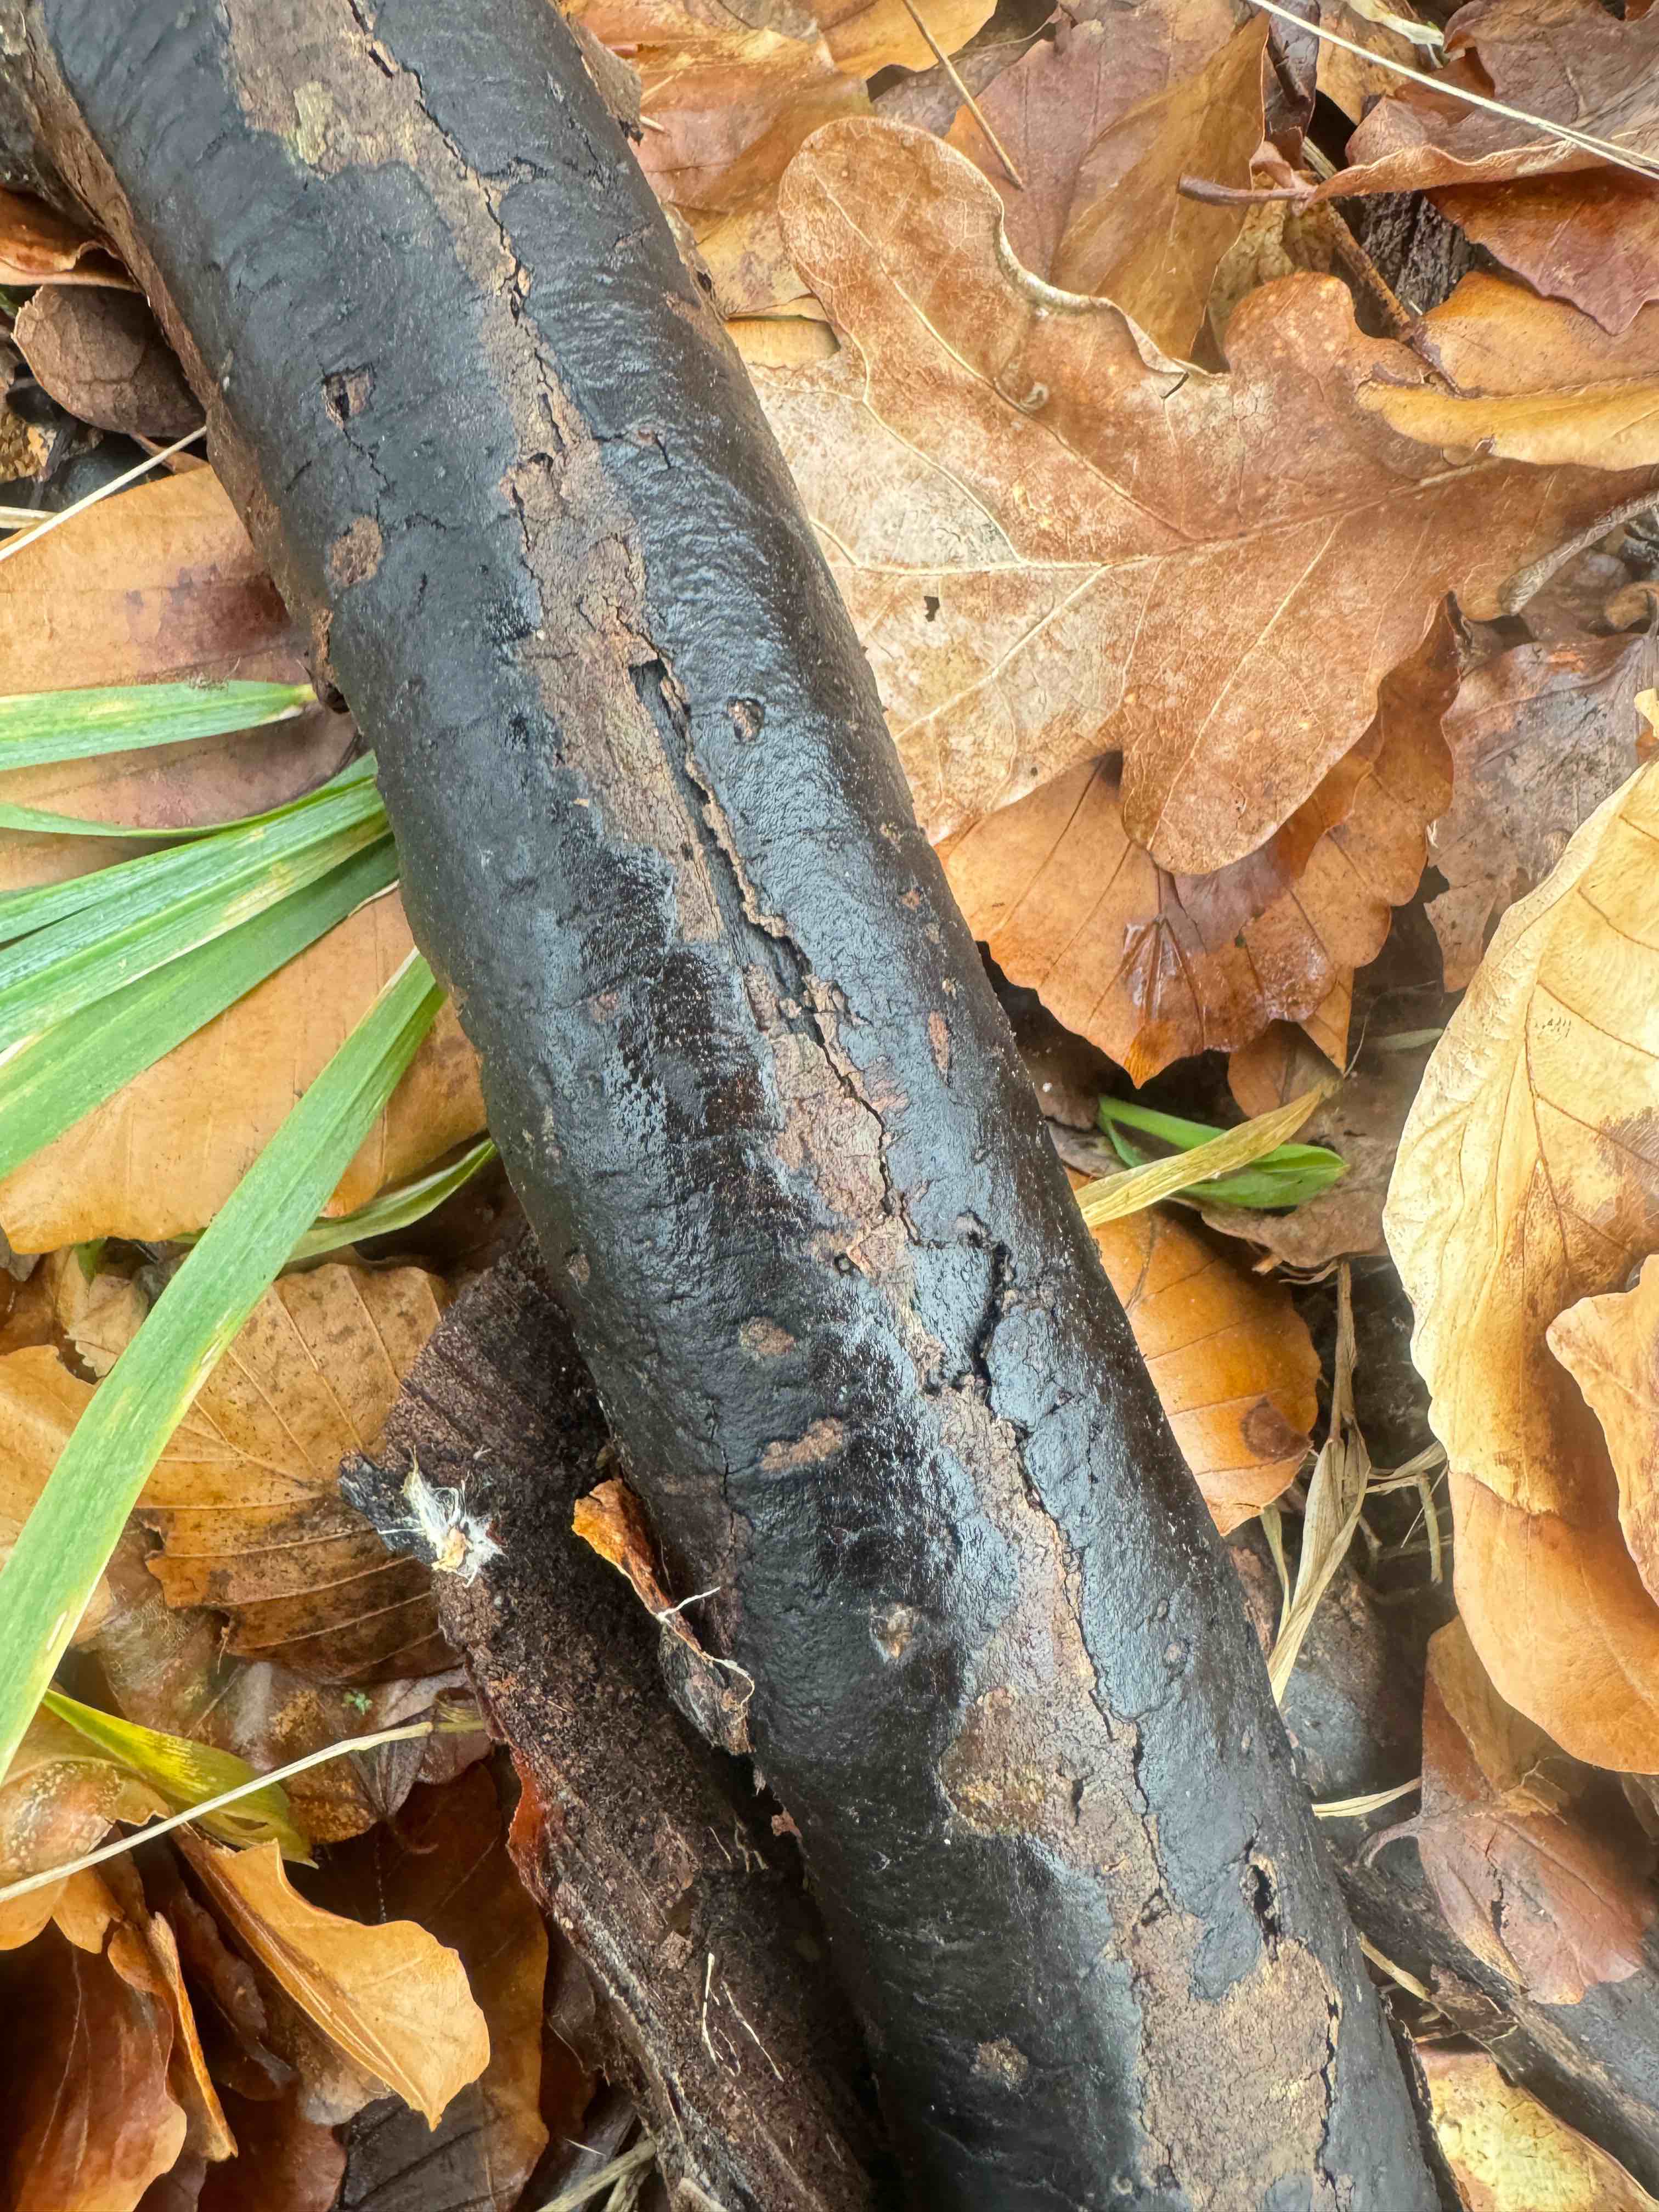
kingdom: Fungi
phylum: Ascomycota
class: Sordariomycetes
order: Xylariales
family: Diatrypaceae
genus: Diatrype
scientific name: Diatrype decorticata
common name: barksprænger-kulskorpe
